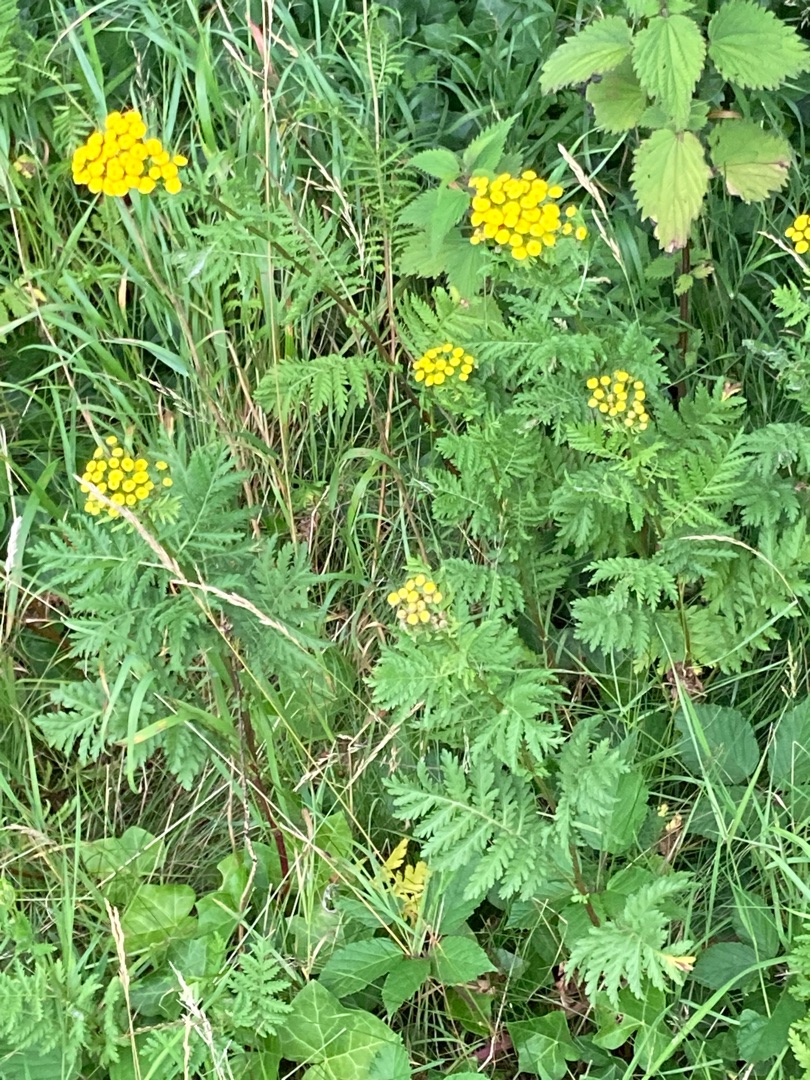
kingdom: Plantae
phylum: Tracheophyta
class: Magnoliopsida
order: Asterales
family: Asteraceae
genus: Tanacetum
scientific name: Tanacetum vulgare
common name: Rejnfan
